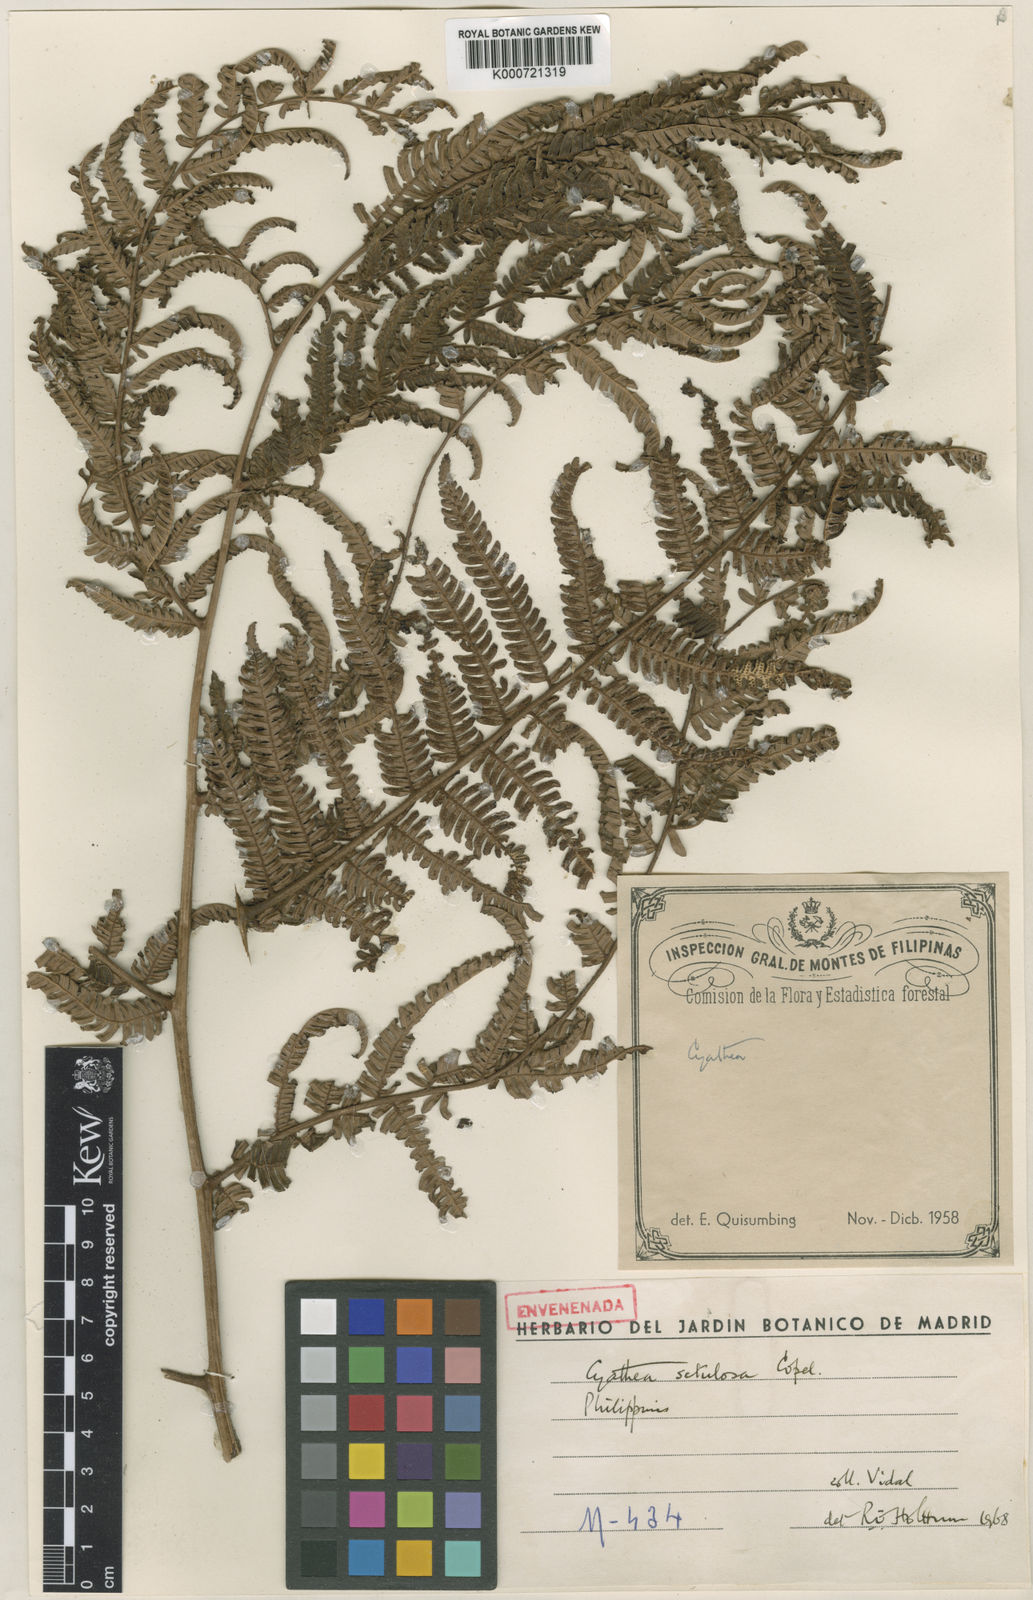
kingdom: Plantae
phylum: Tracheophyta
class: Polypodiopsida
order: Cyatheales
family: Cyatheaceae
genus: Alsophila
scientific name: Alsophila setulosa
